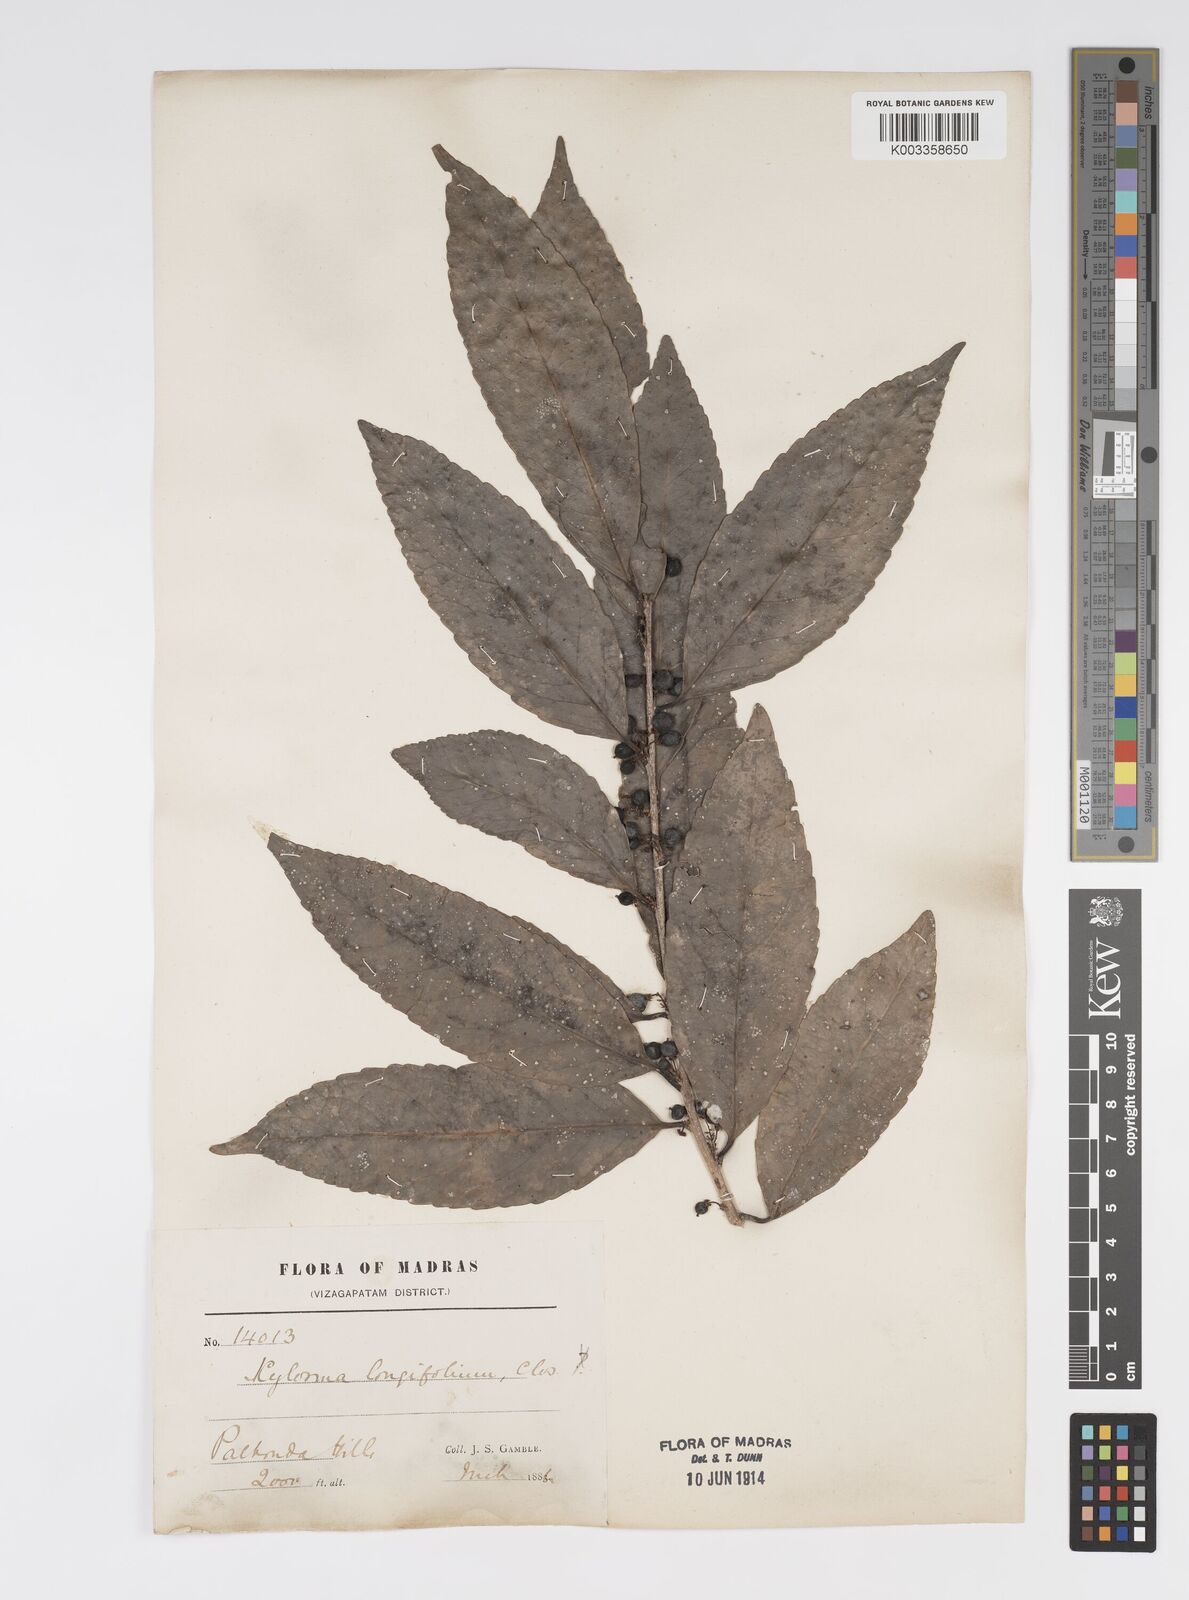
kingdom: Plantae
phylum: Tracheophyta
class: Magnoliopsida
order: Malpighiales
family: Salicaceae
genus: Xylosma
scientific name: Xylosma longifolia
